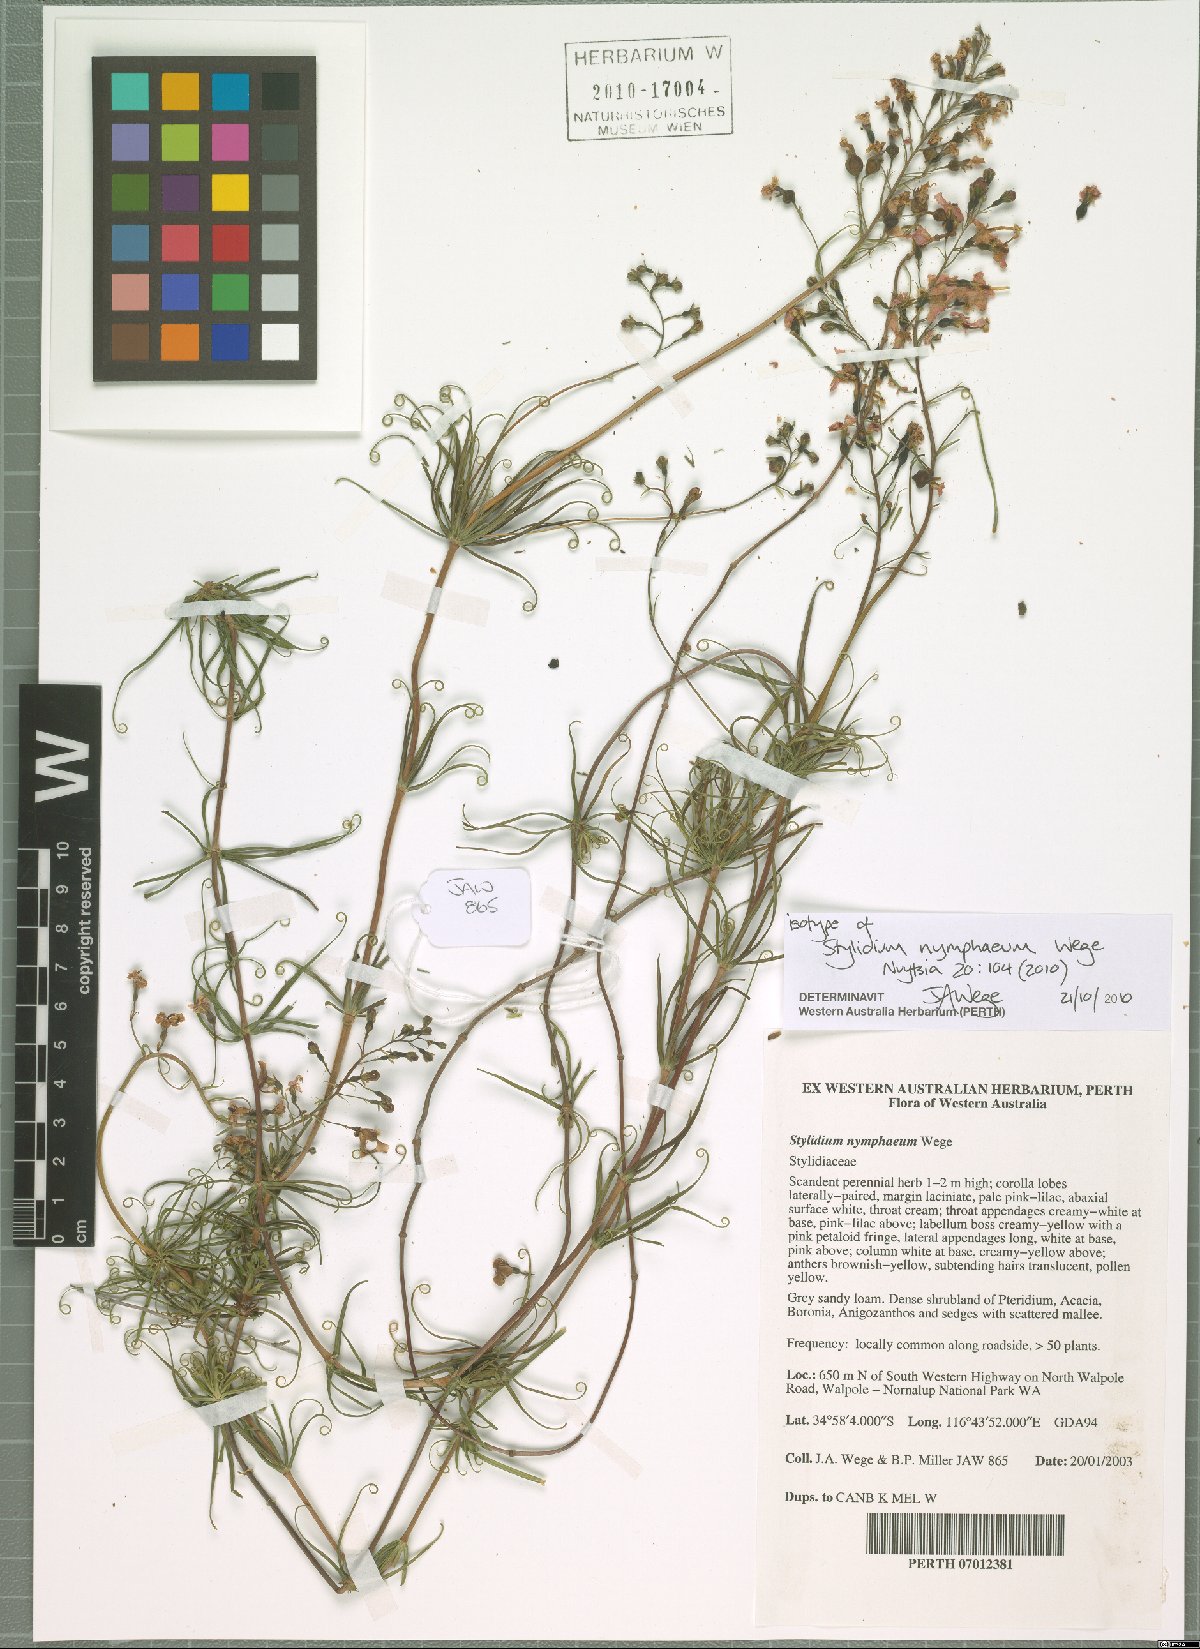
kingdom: Plantae
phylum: Tracheophyta
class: Magnoliopsida
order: Asterales
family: Stylidiaceae
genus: Stylidium
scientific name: Stylidium nymphaeum
